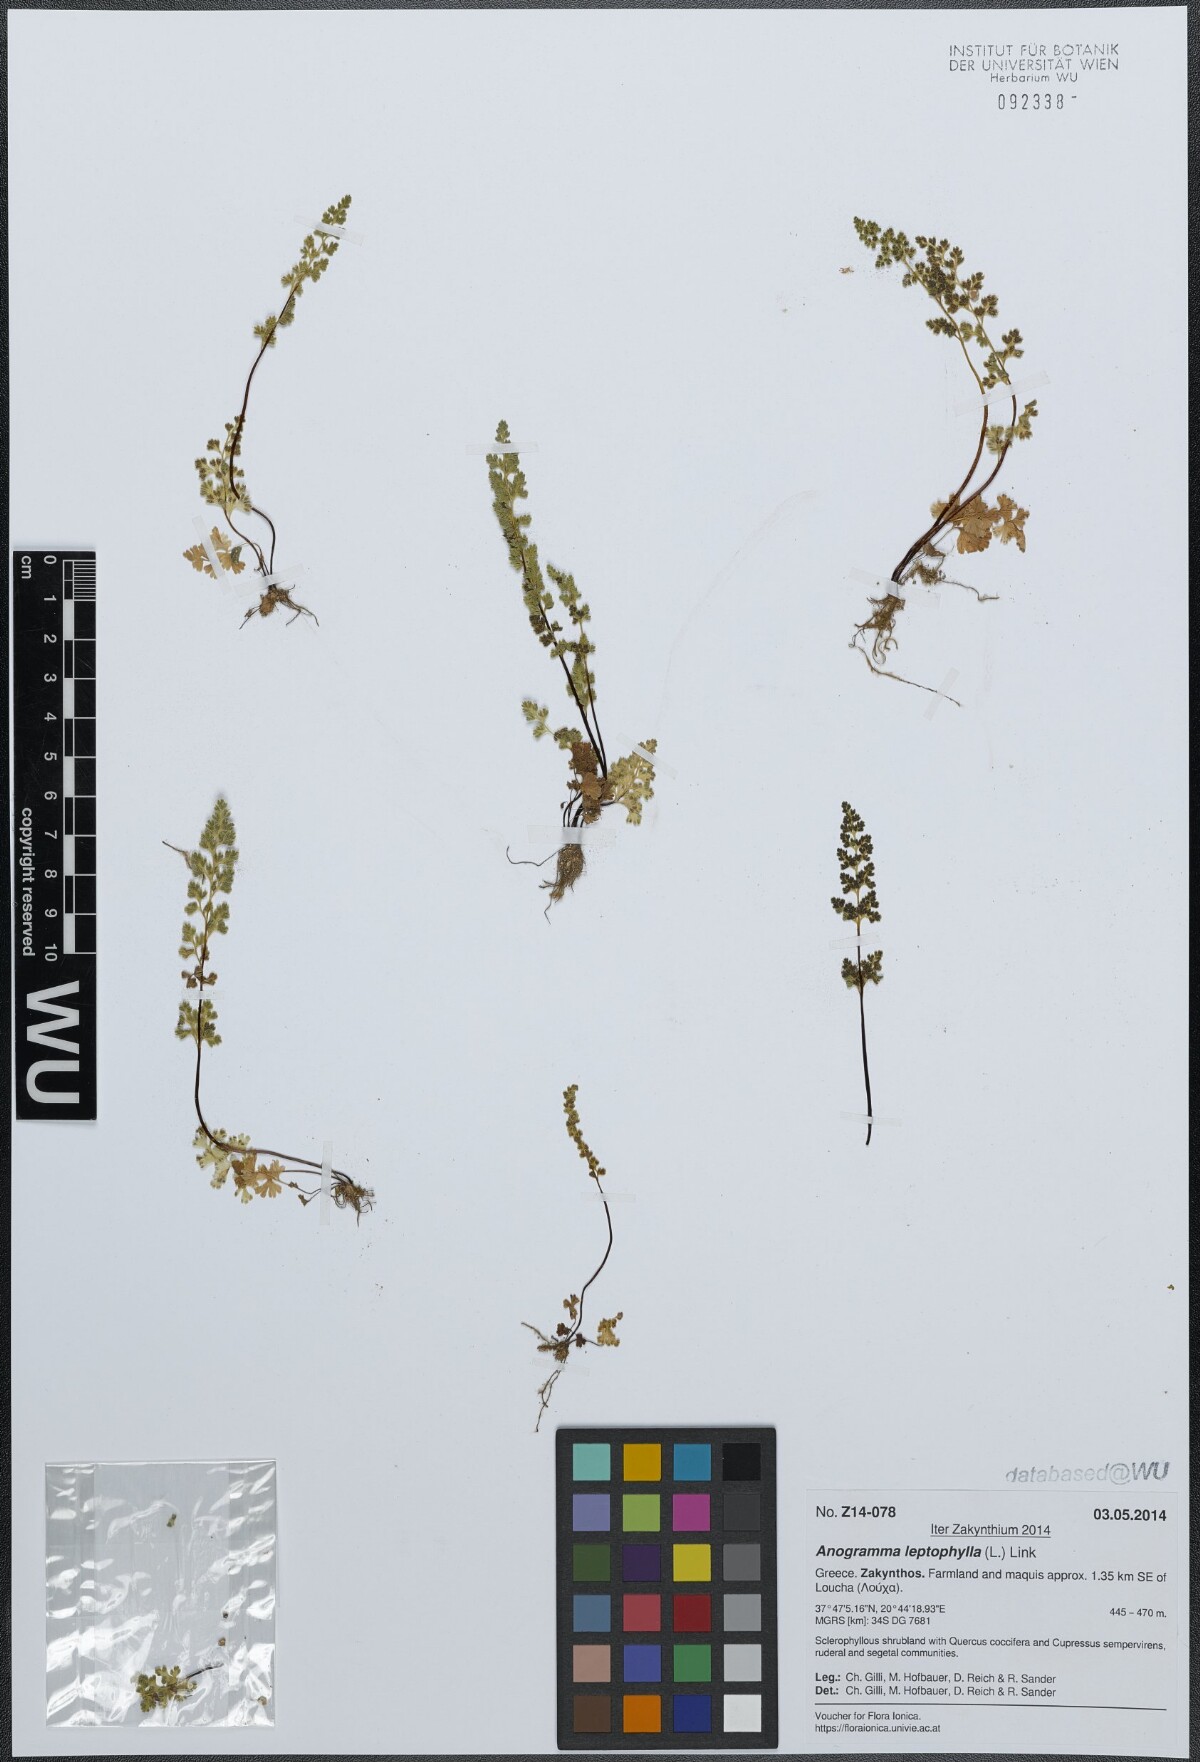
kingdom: Plantae
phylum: Tracheophyta
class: Polypodiopsida
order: Polypodiales
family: Pteridaceae
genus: Anogramma
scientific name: Anogramma leptophylla
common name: Jersey fern
